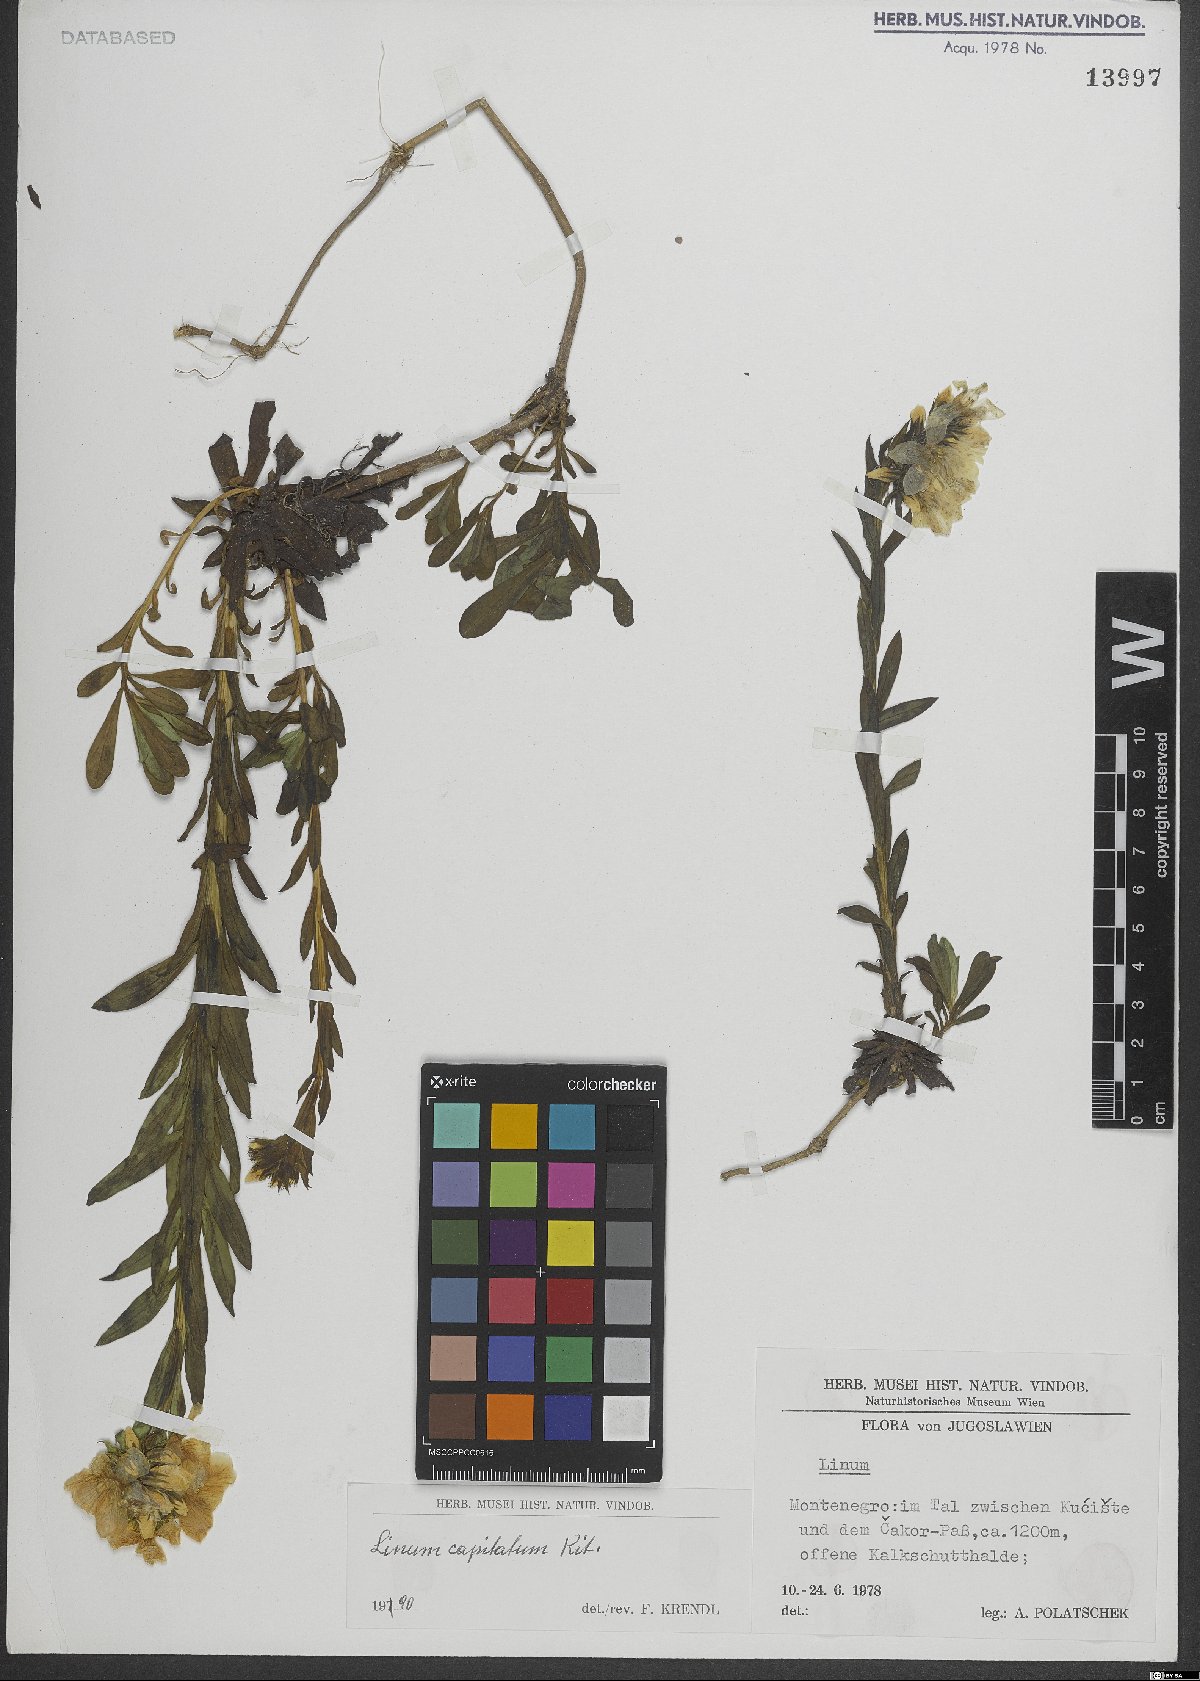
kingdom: Plantae
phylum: Tracheophyta
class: Magnoliopsida
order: Malpighiales
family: Linaceae
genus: Linum
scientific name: Linum capitatum
